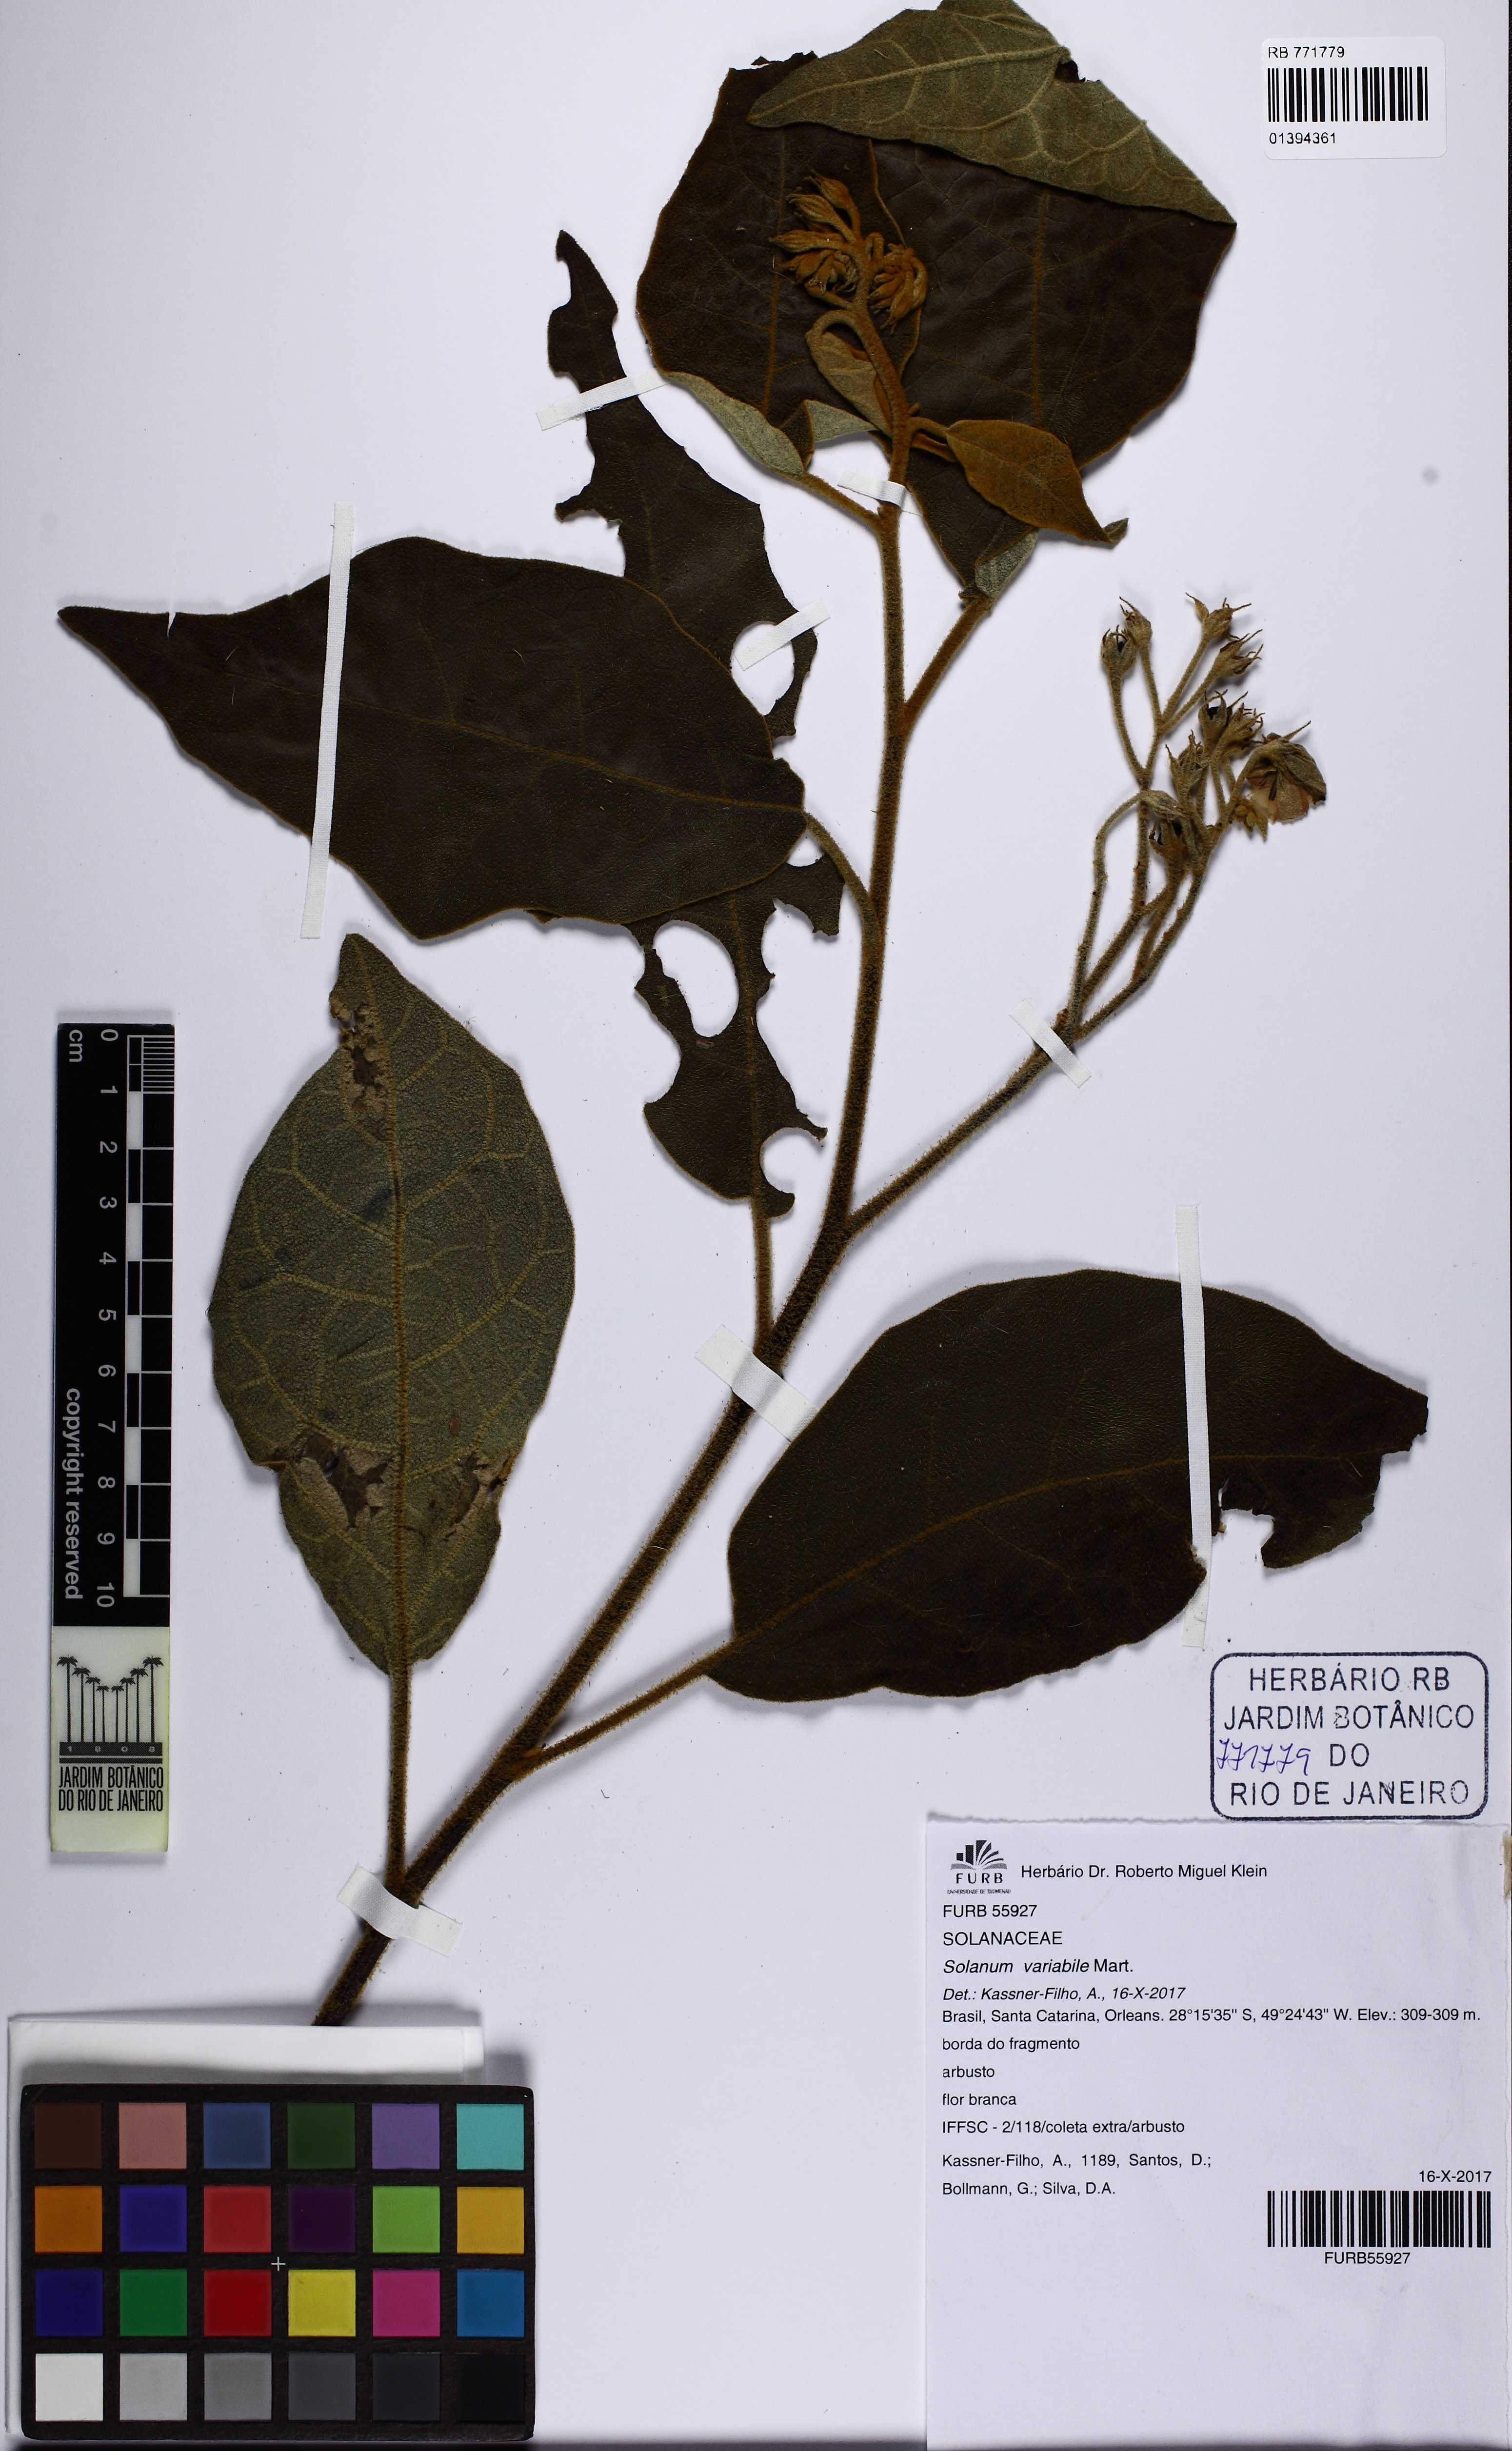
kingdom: Plantae
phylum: Tracheophyta
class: Magnoliopsida
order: Solanales
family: Solanaceae
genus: Solanum
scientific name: Solanum variabile
